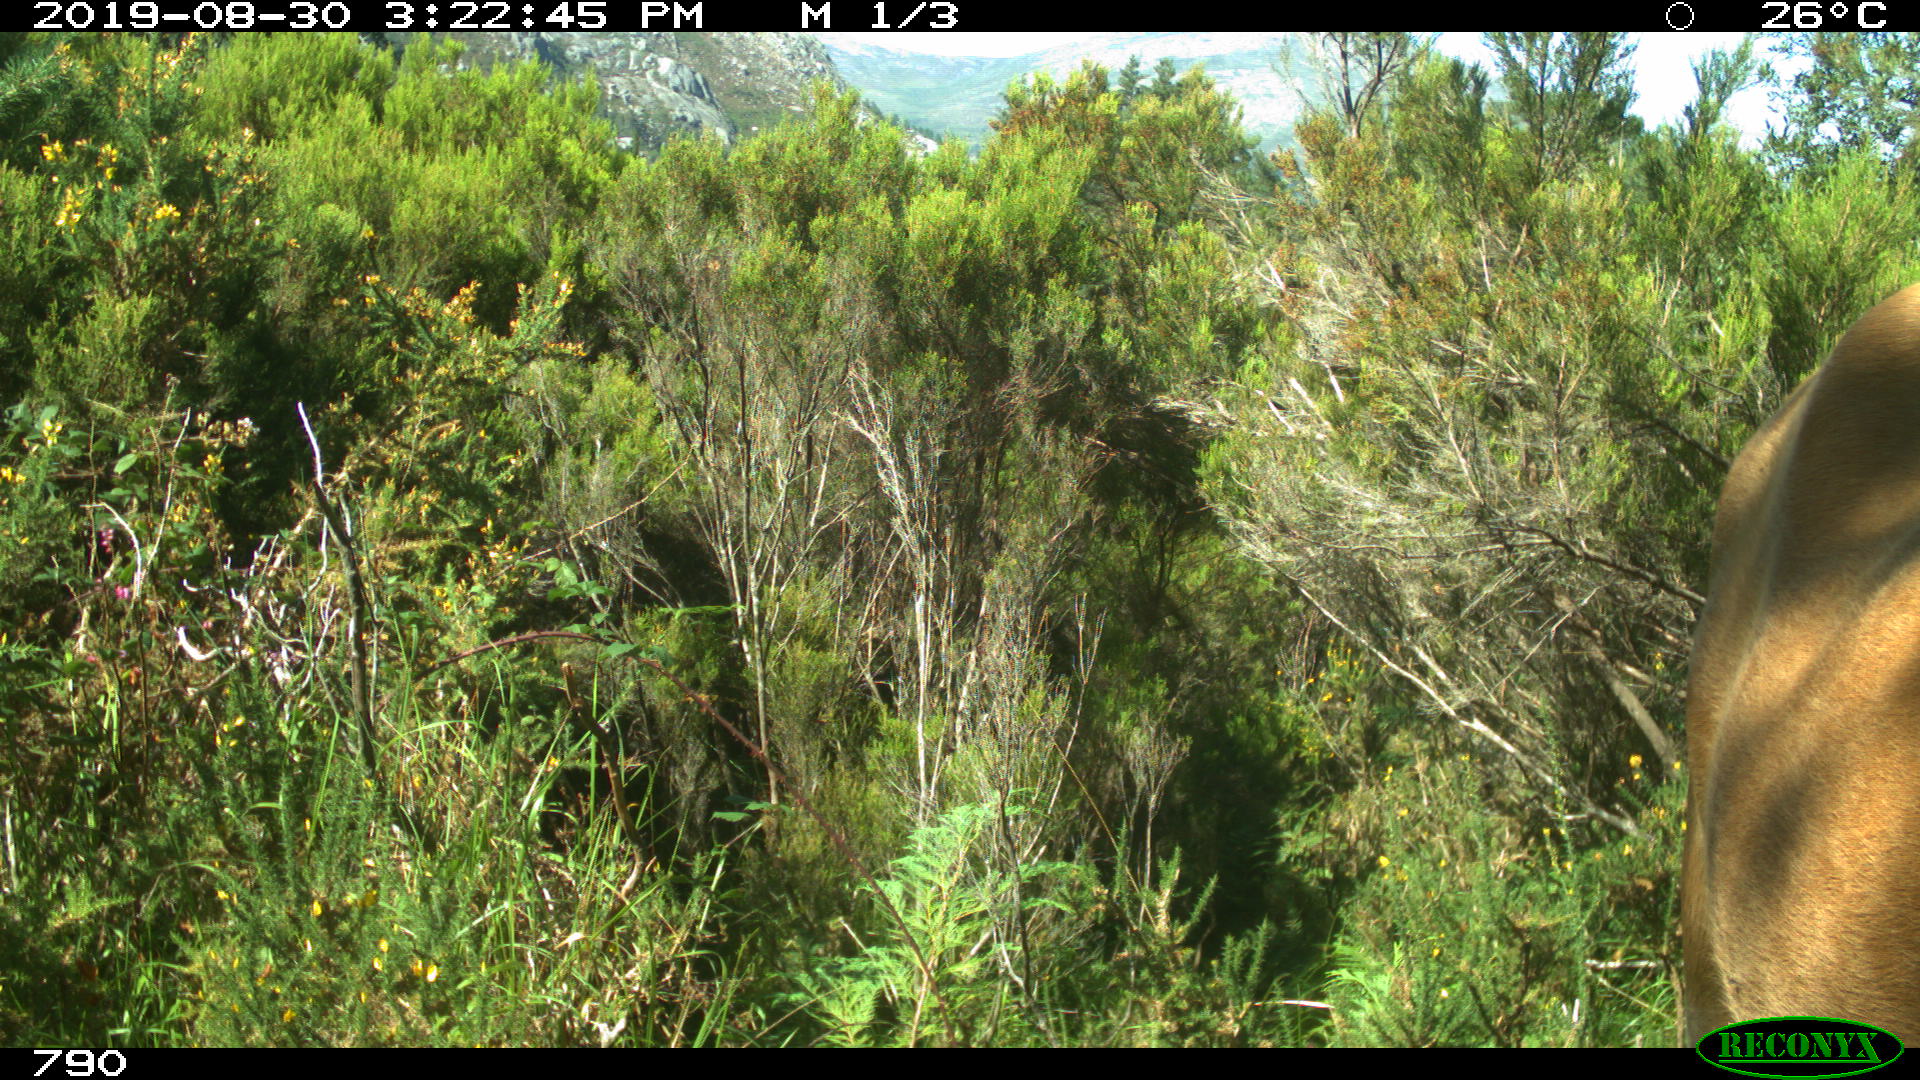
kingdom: Animalia
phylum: Chordata
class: Mammalia
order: Artiodactyla
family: Bovidae
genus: Bos
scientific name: Bos taurus
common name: Domesticated cattle
